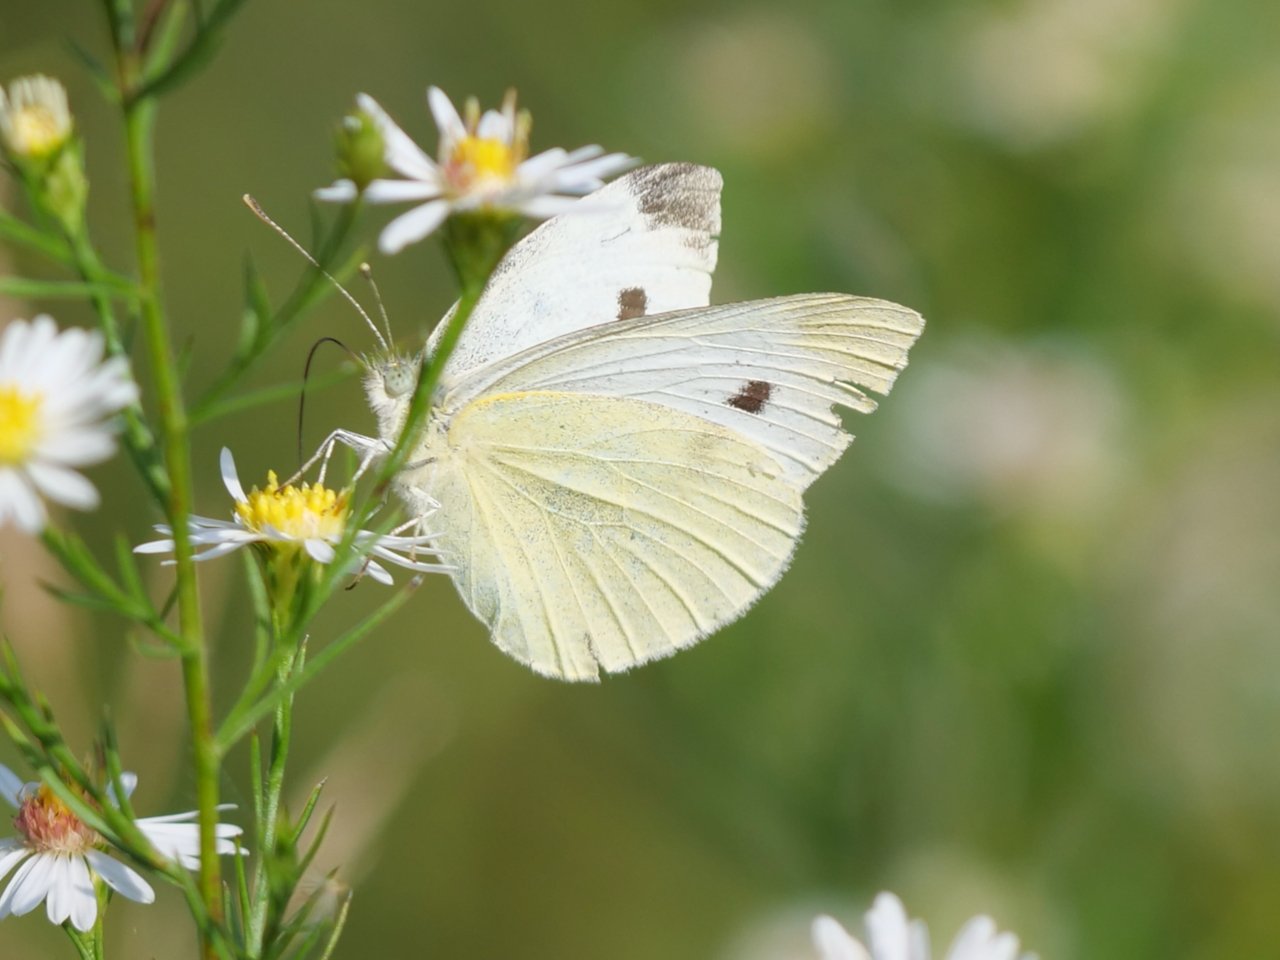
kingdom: Animalia
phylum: Arthropoda
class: Insecta
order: Lepidoptera
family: Pieridae
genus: Pieris
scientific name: Pieris rapae
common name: Cabbage White
